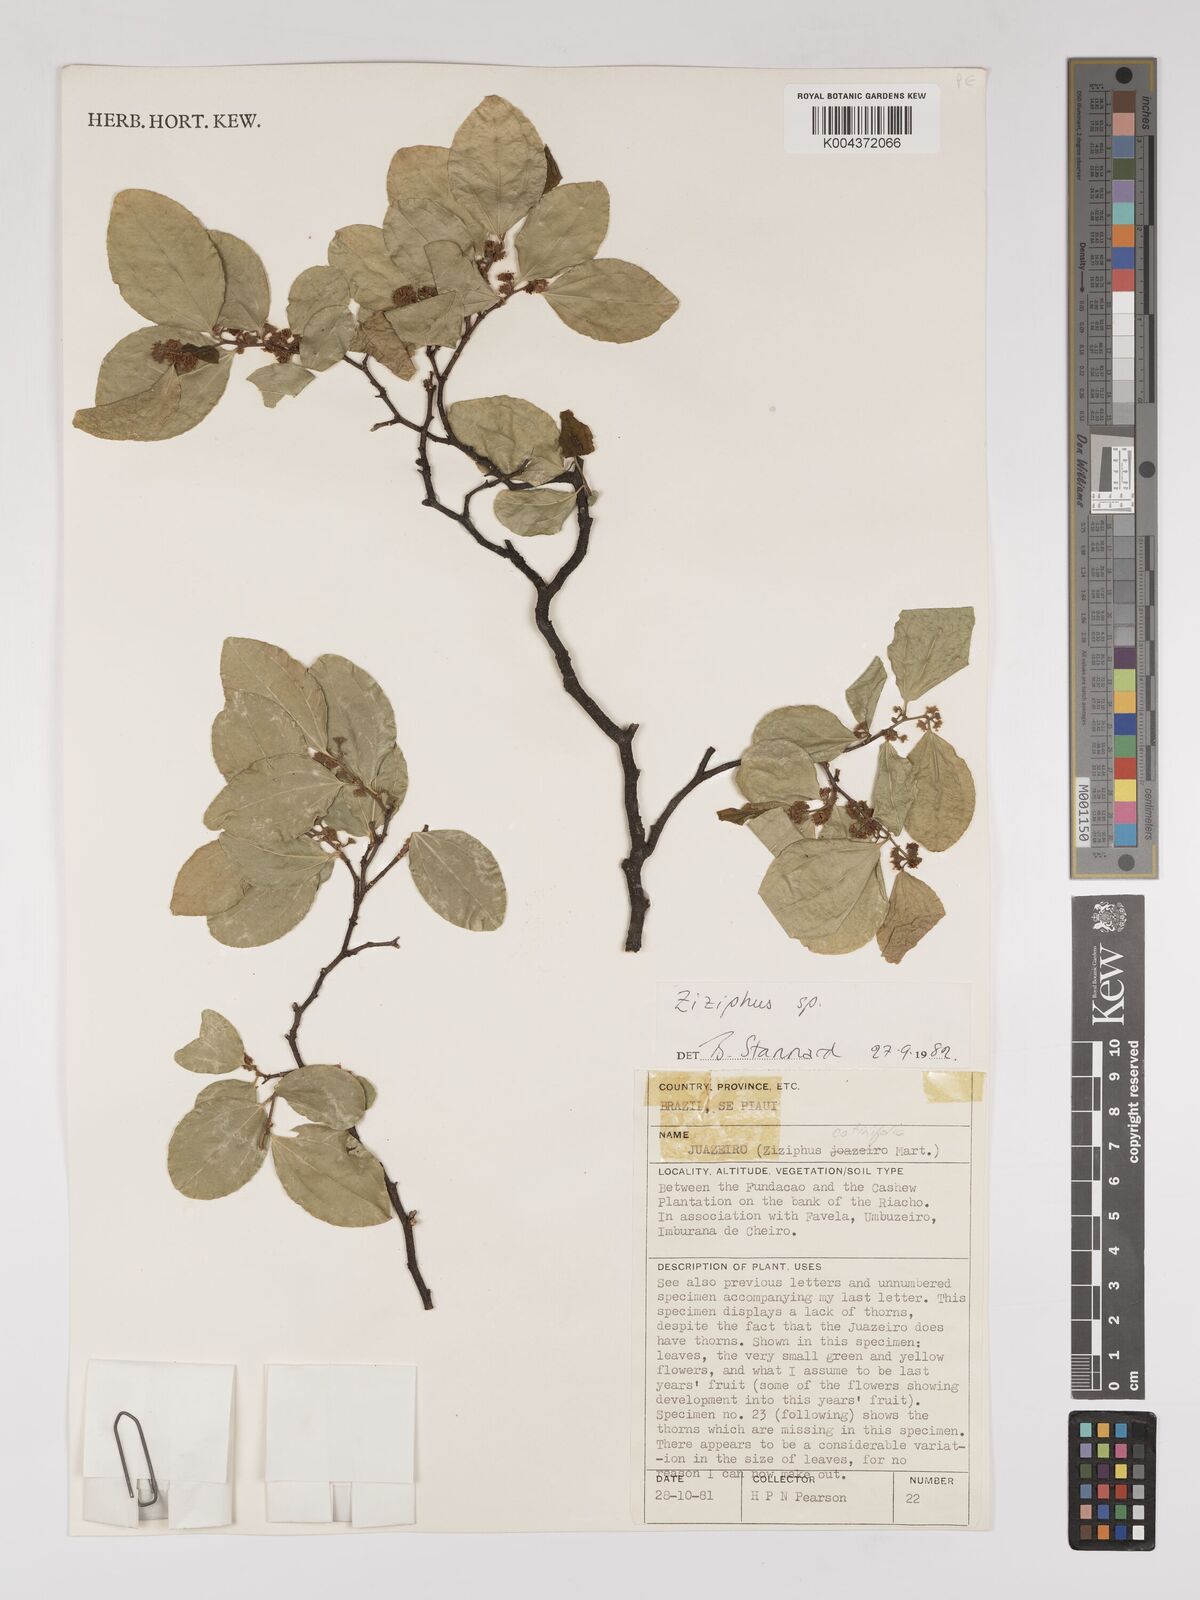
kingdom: Plantae
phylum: Tracheophyta
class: Magnoliopsida
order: Rosales
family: Rhamnaceae
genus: Sarcomphalus
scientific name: Sarcomphalus cotinifolius
